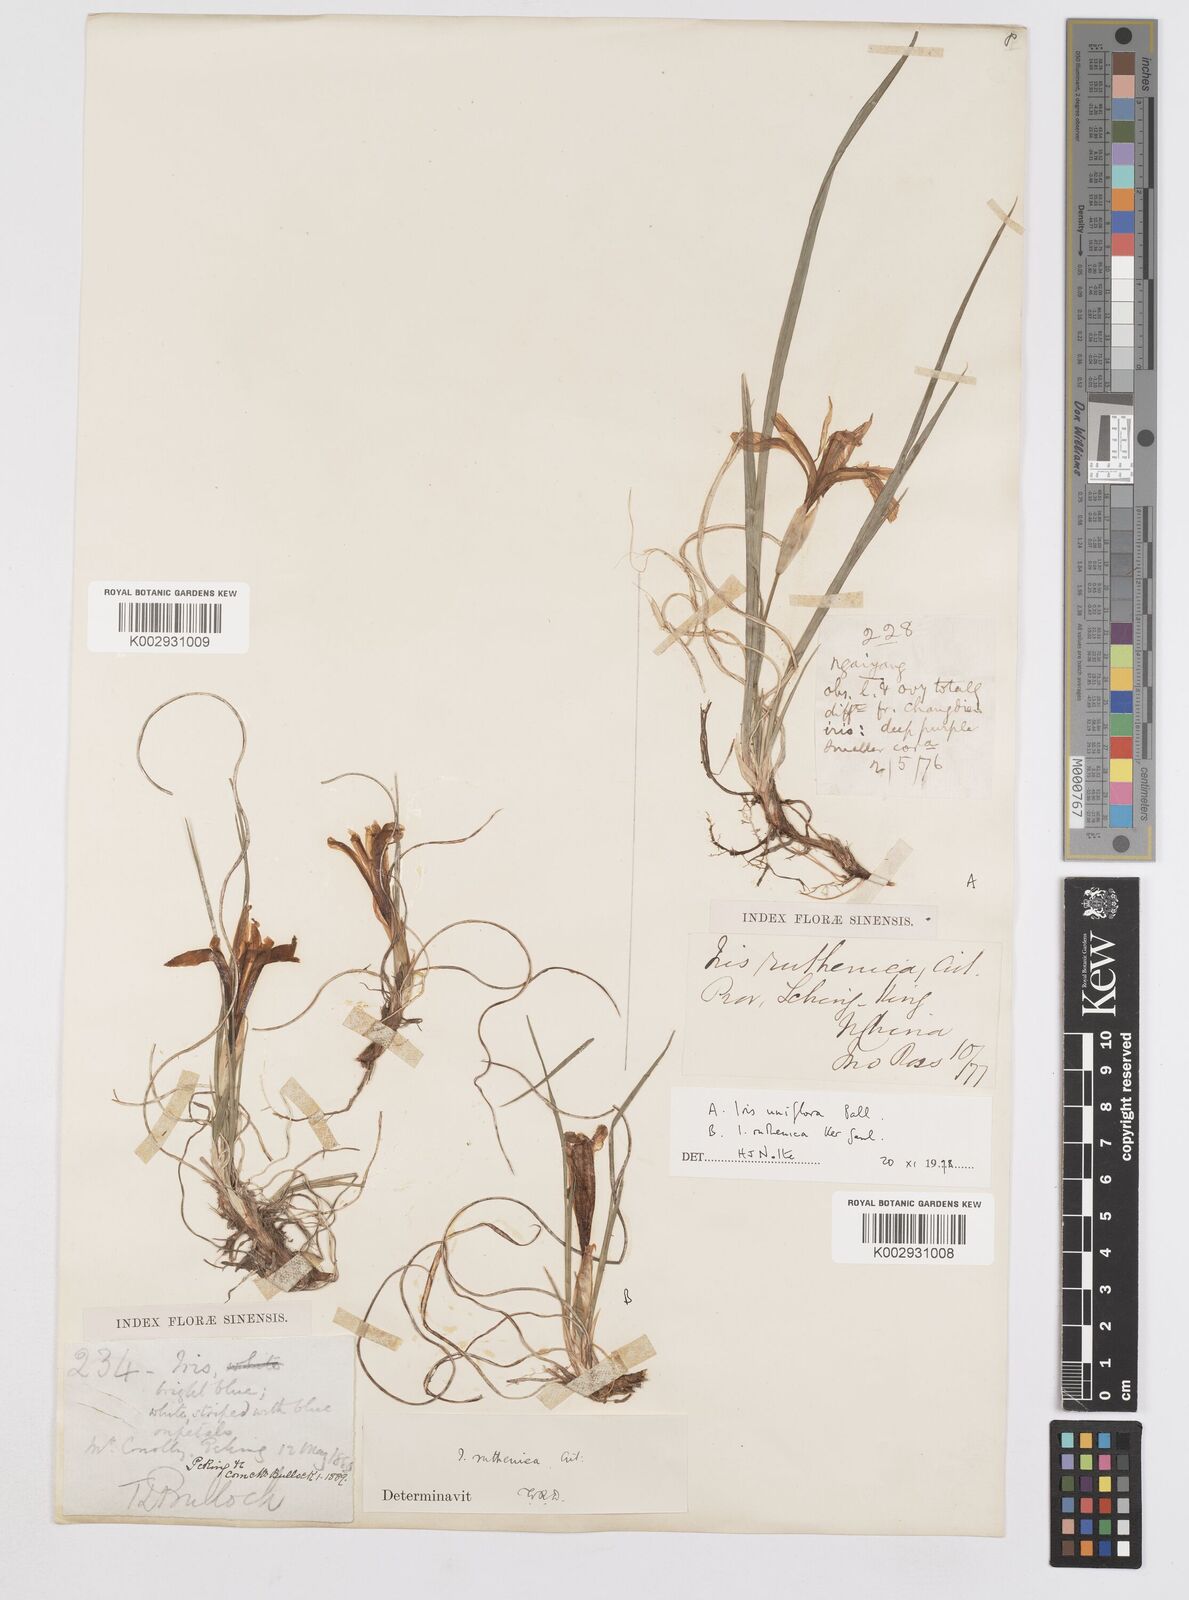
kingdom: Plantae
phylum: Tracheophyta
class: Liliopsida
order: Asparagales
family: Iridaceae
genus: Iris
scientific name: Iris uniflora
